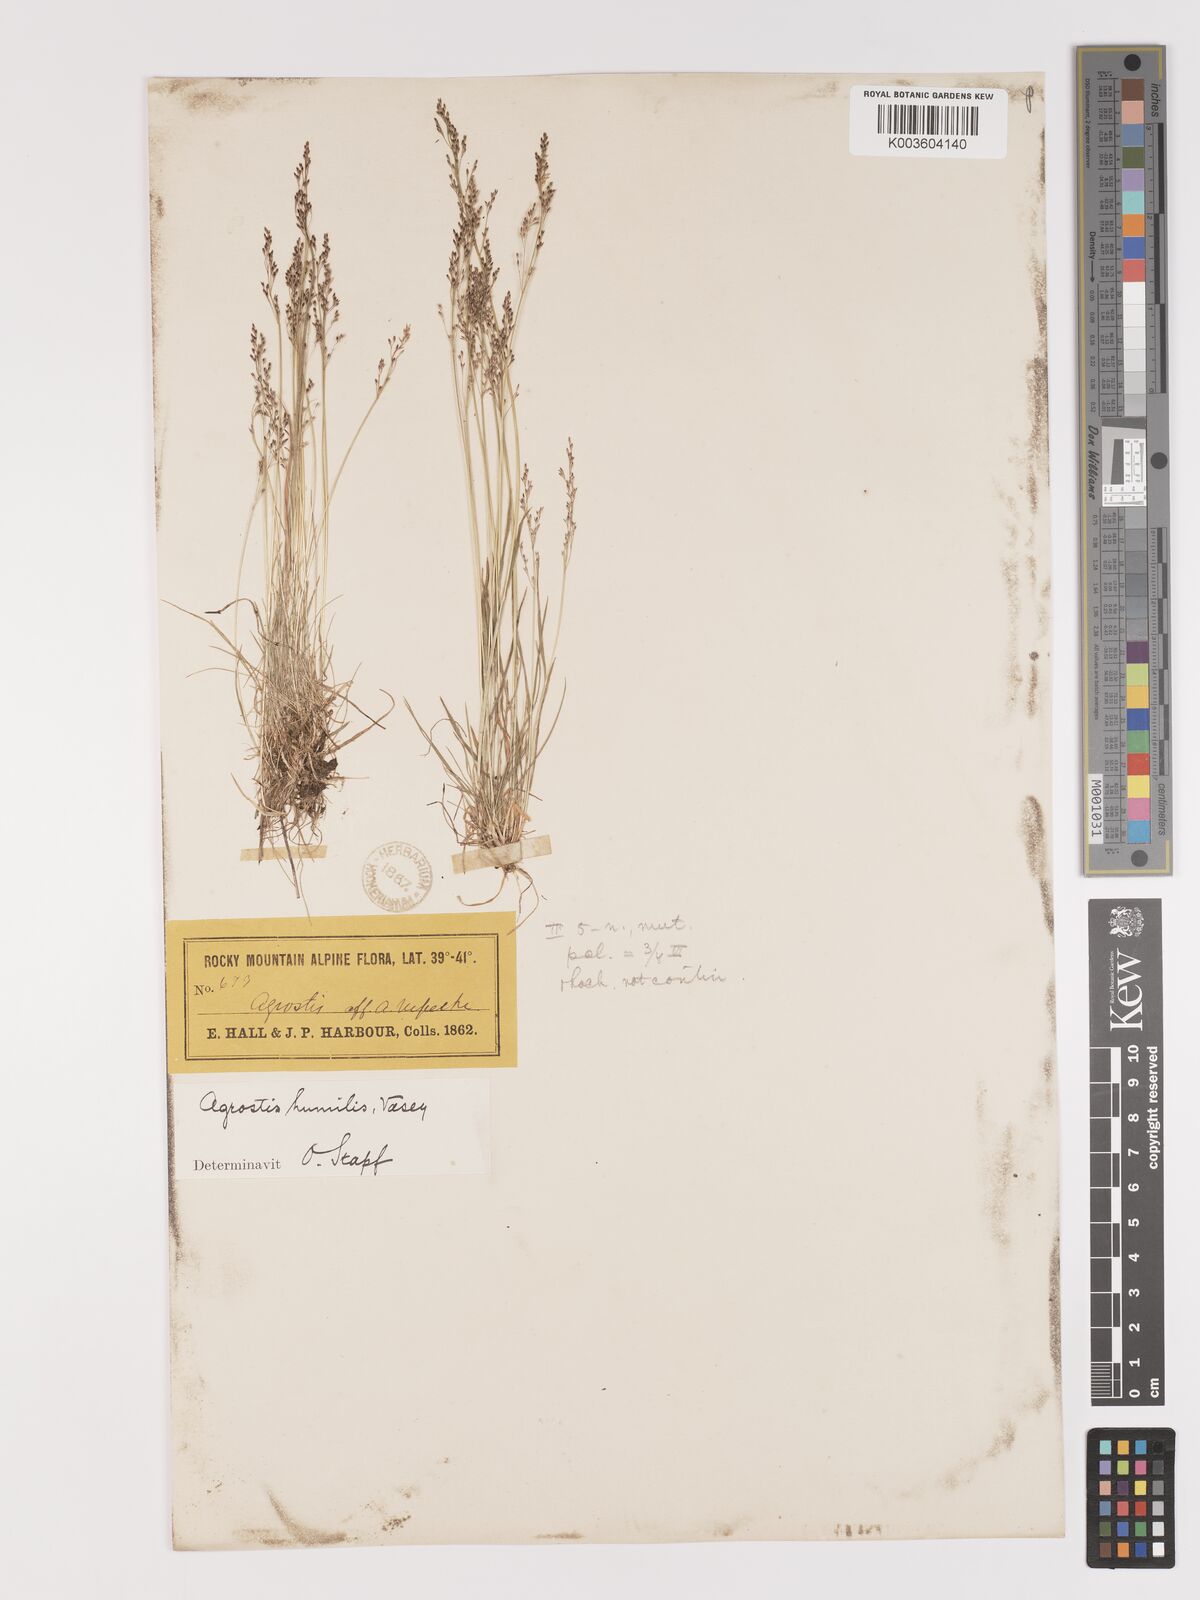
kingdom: Plantae
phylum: Tracheophyta
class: Liliopsida
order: Poales
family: Poaceae
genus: Podagrostis
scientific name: Podagrostis humilis
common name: Thurber's bentgrass
